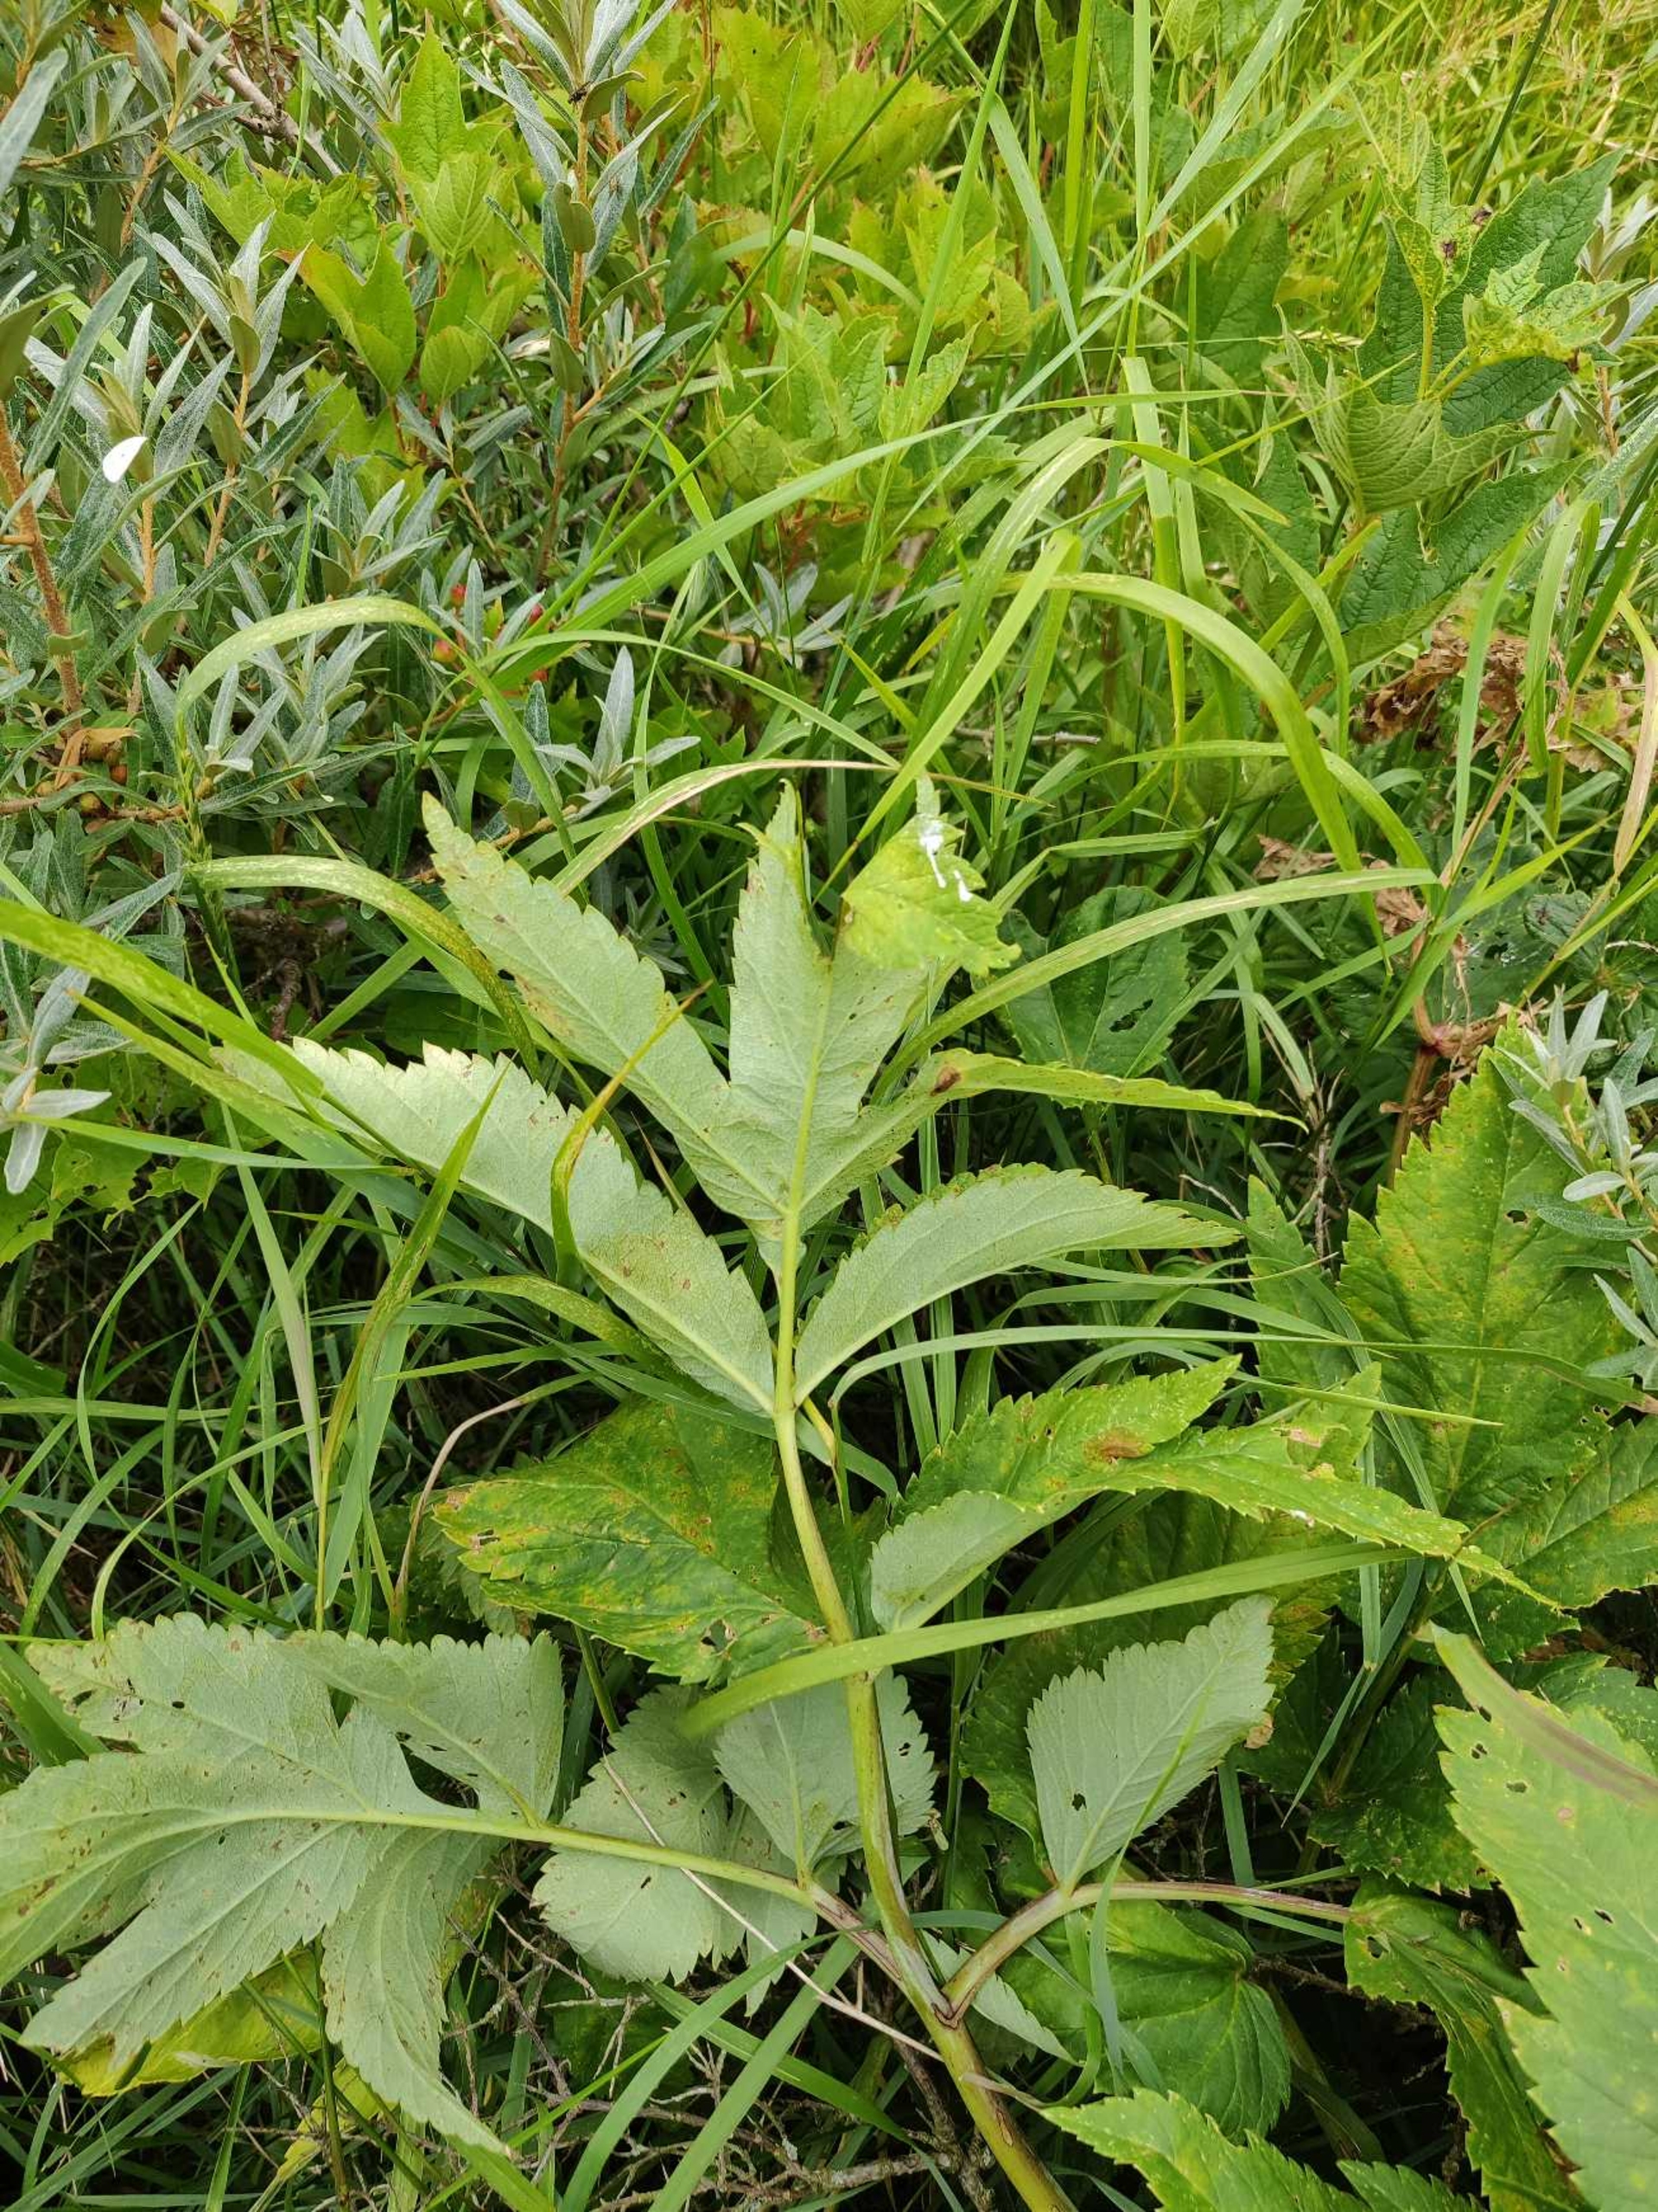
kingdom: Plantae
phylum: Tracheophyta
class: Magnoliopsida
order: Apiales
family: Apiaceae
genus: Angelica
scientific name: Angelica archangelica
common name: Kvan
